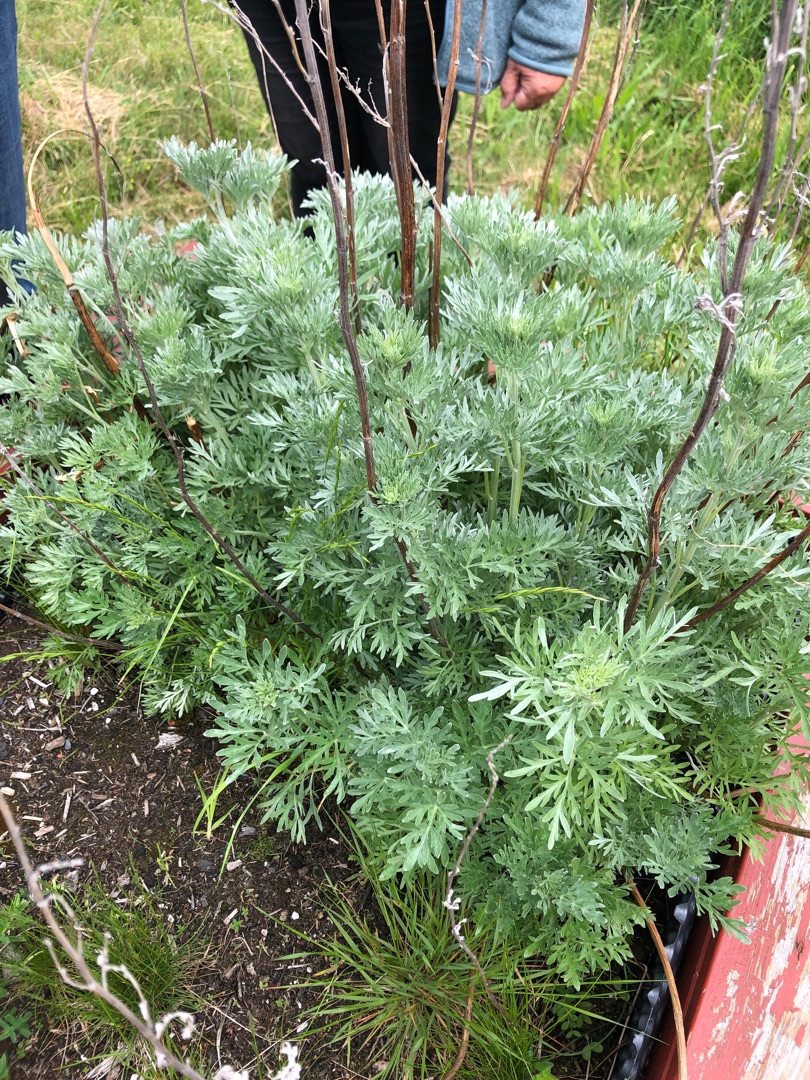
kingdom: Plantae
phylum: Tracheophyta
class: Magnoliopsida
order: Asterales
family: Asteraceae
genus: Artemisia
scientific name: Artemisia absinthium
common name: Havemalurt
